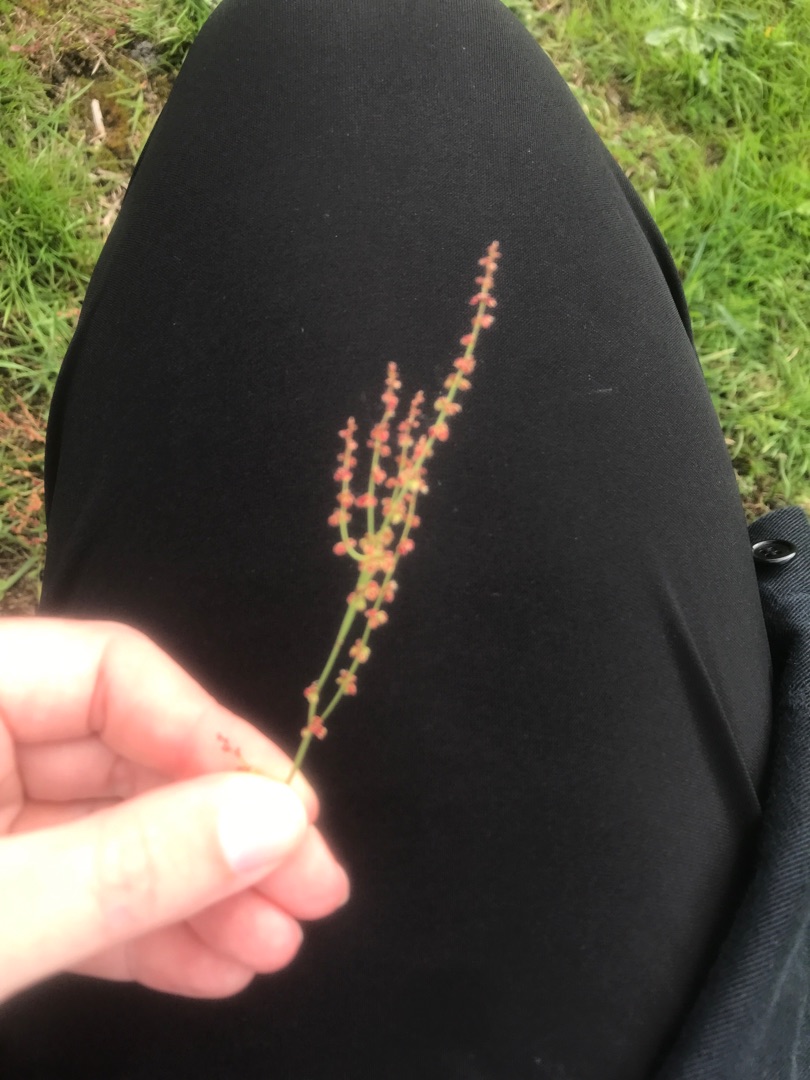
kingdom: Plantae
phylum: Tracheophyta
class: Magnoliopsida
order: Caryophyllales
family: Polygonaceae
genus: Rumex
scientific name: Rumex acetosella
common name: Rødknæ
